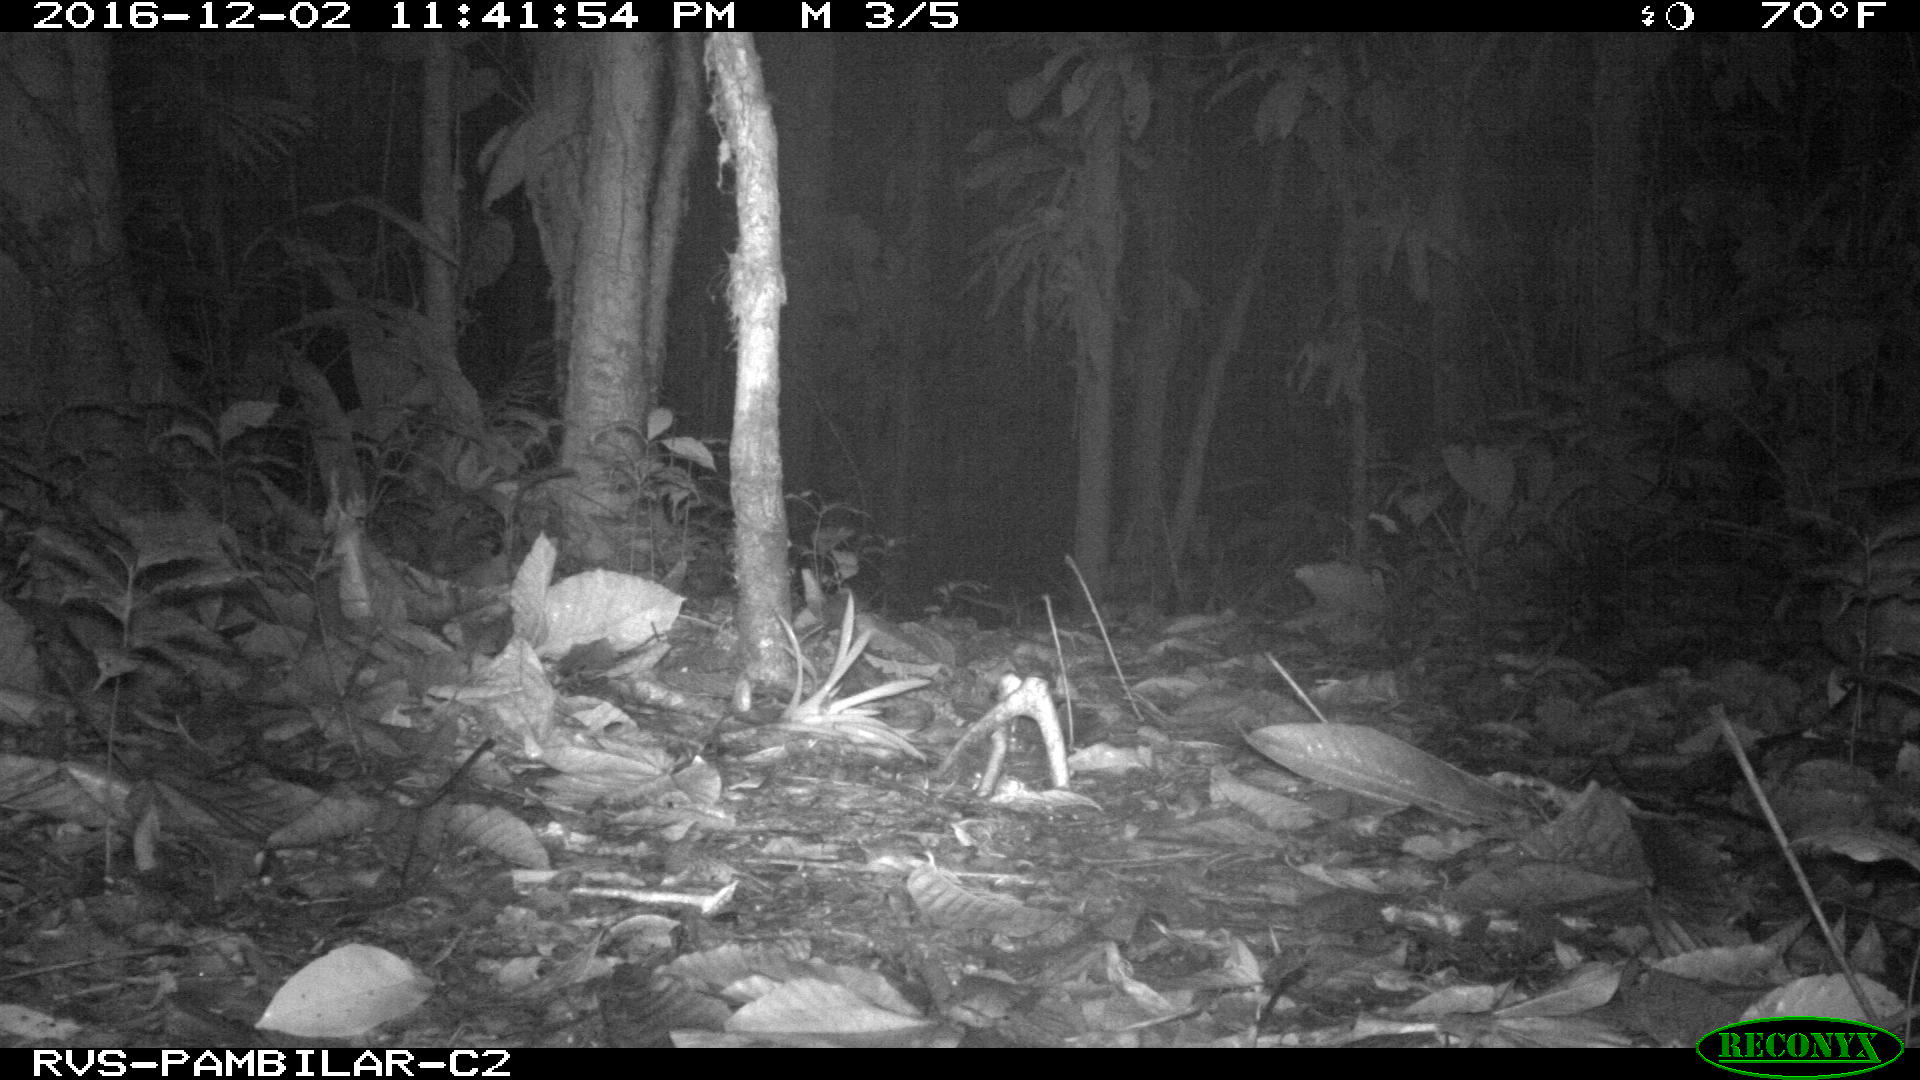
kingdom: Animalia
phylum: Chordata
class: Mammalia
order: Rodentia
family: Cuniculidae
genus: Cuniculus
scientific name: Cuniculus paca
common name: Lowland paca
